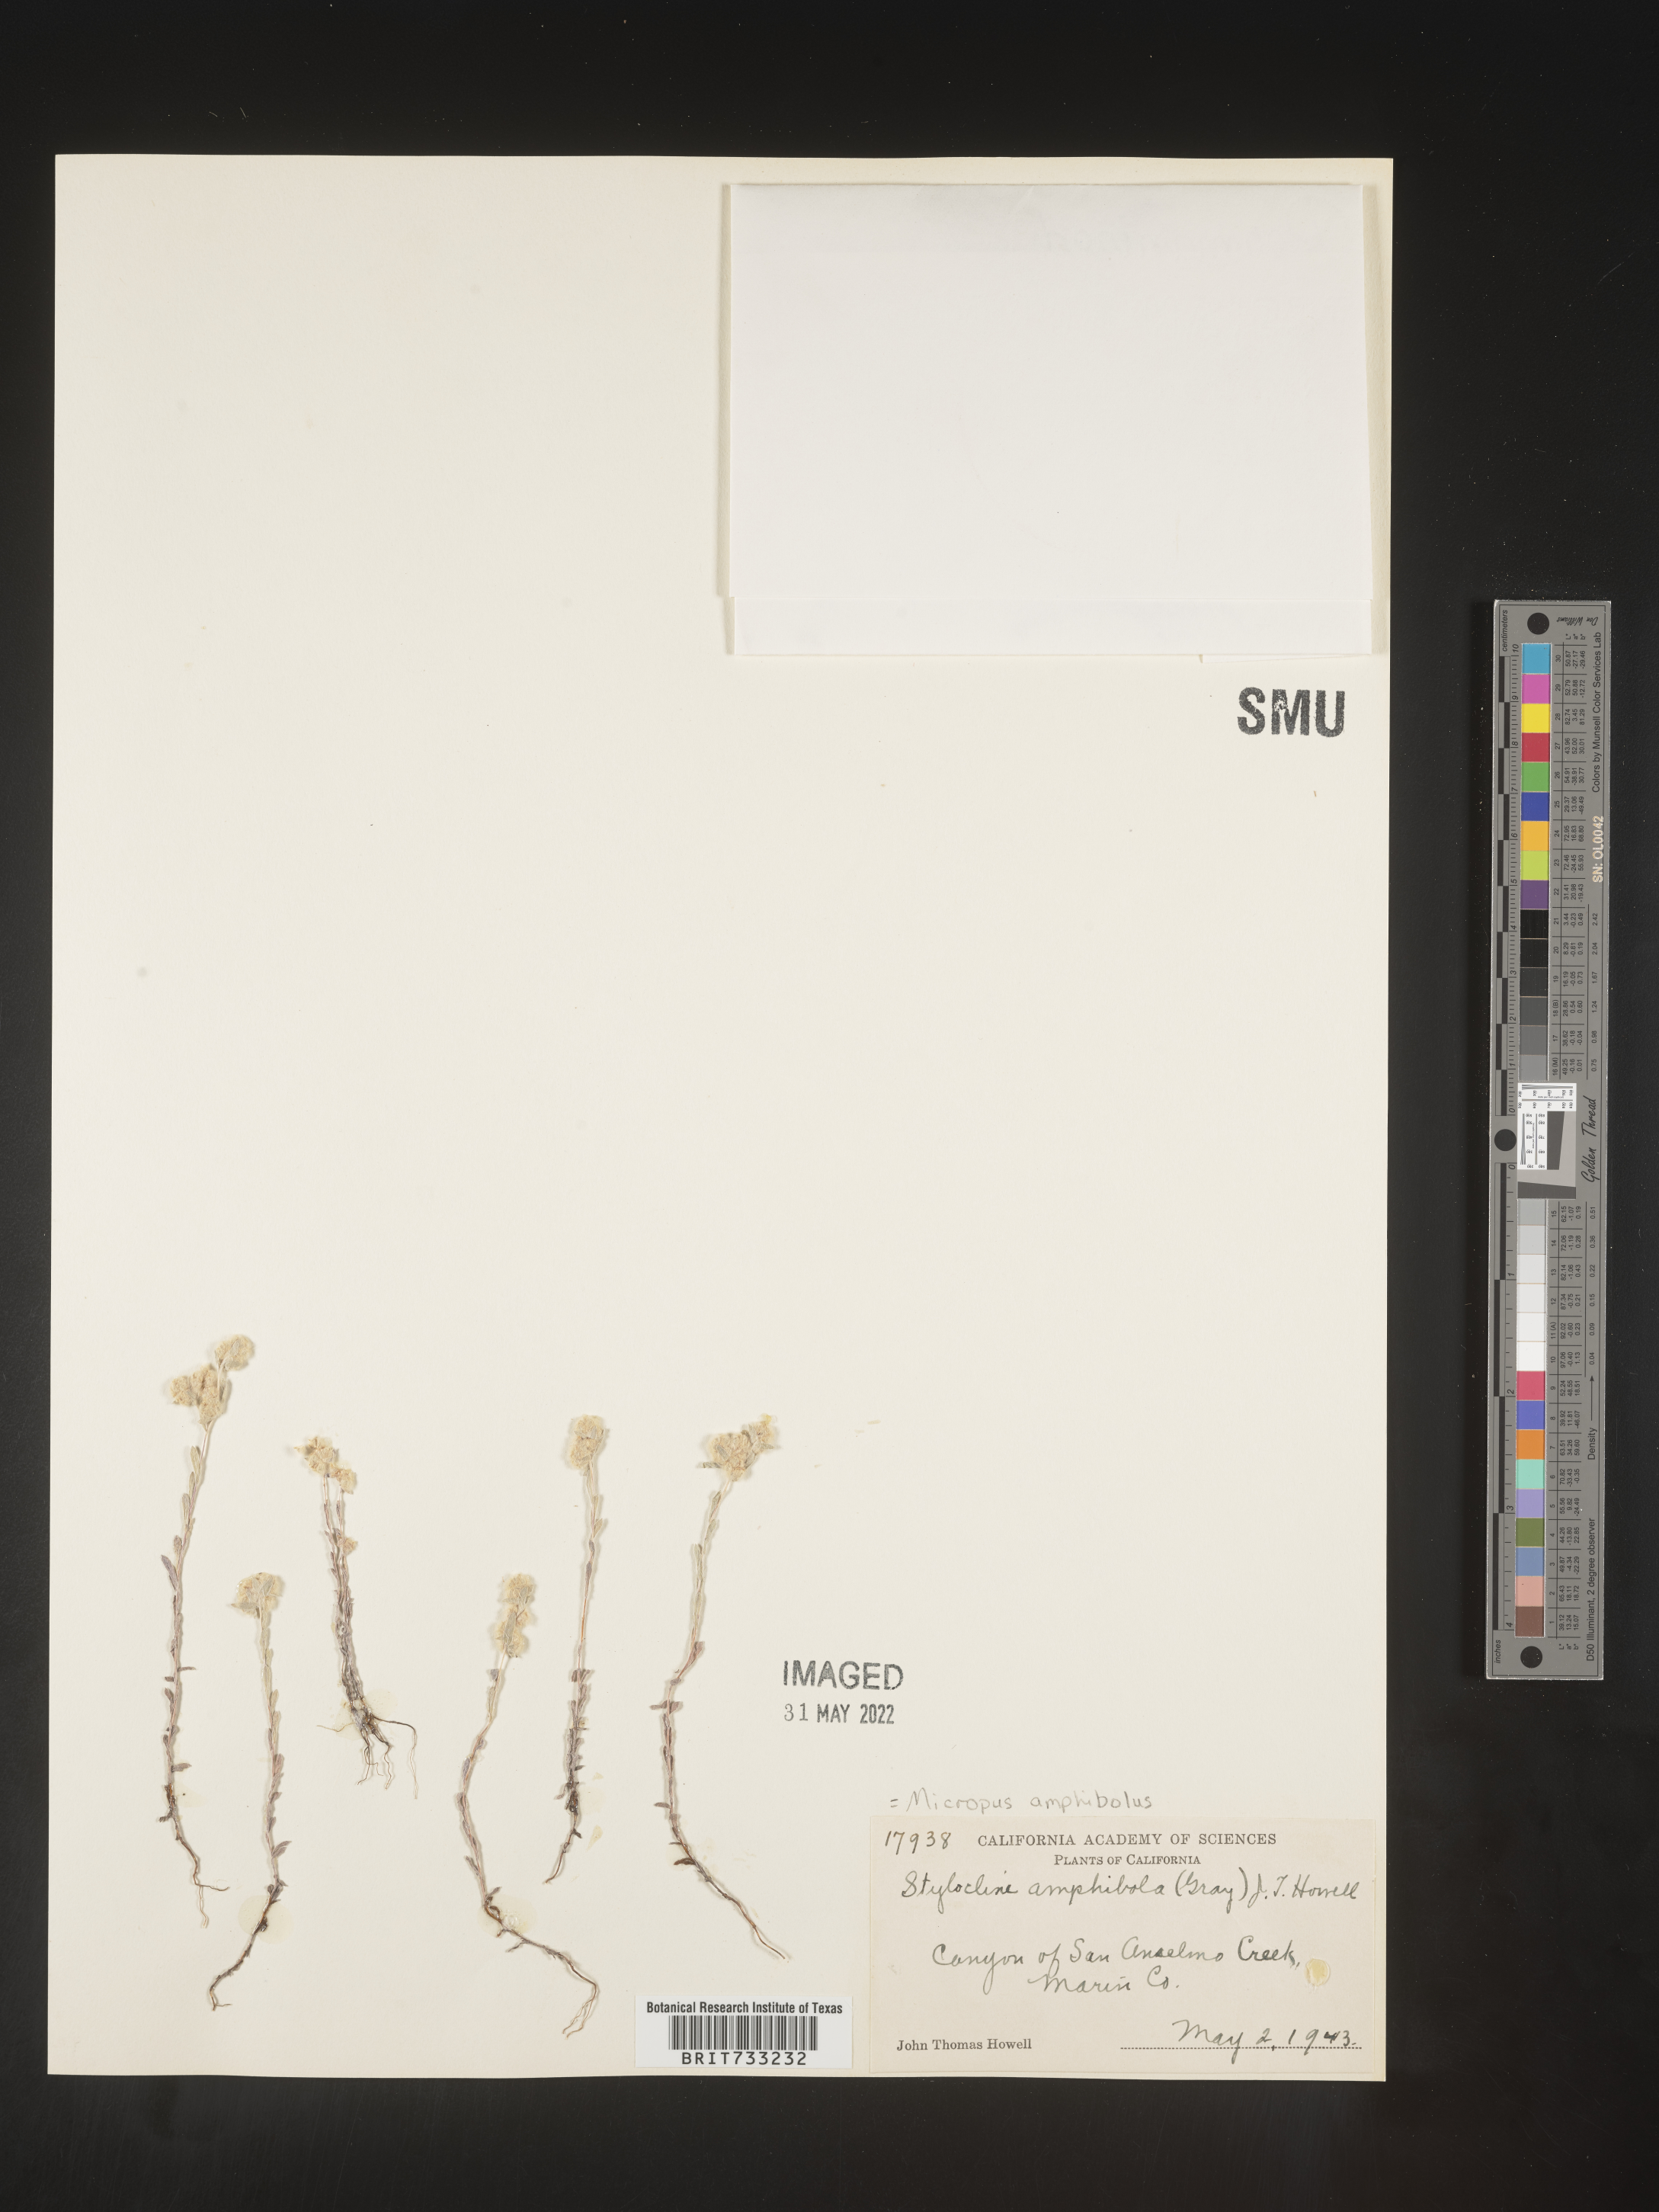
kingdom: Plantae
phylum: Tracheophyta
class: Magnoliopsida
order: Asterales
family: Asteraceae
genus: Micropus
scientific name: Micropus
